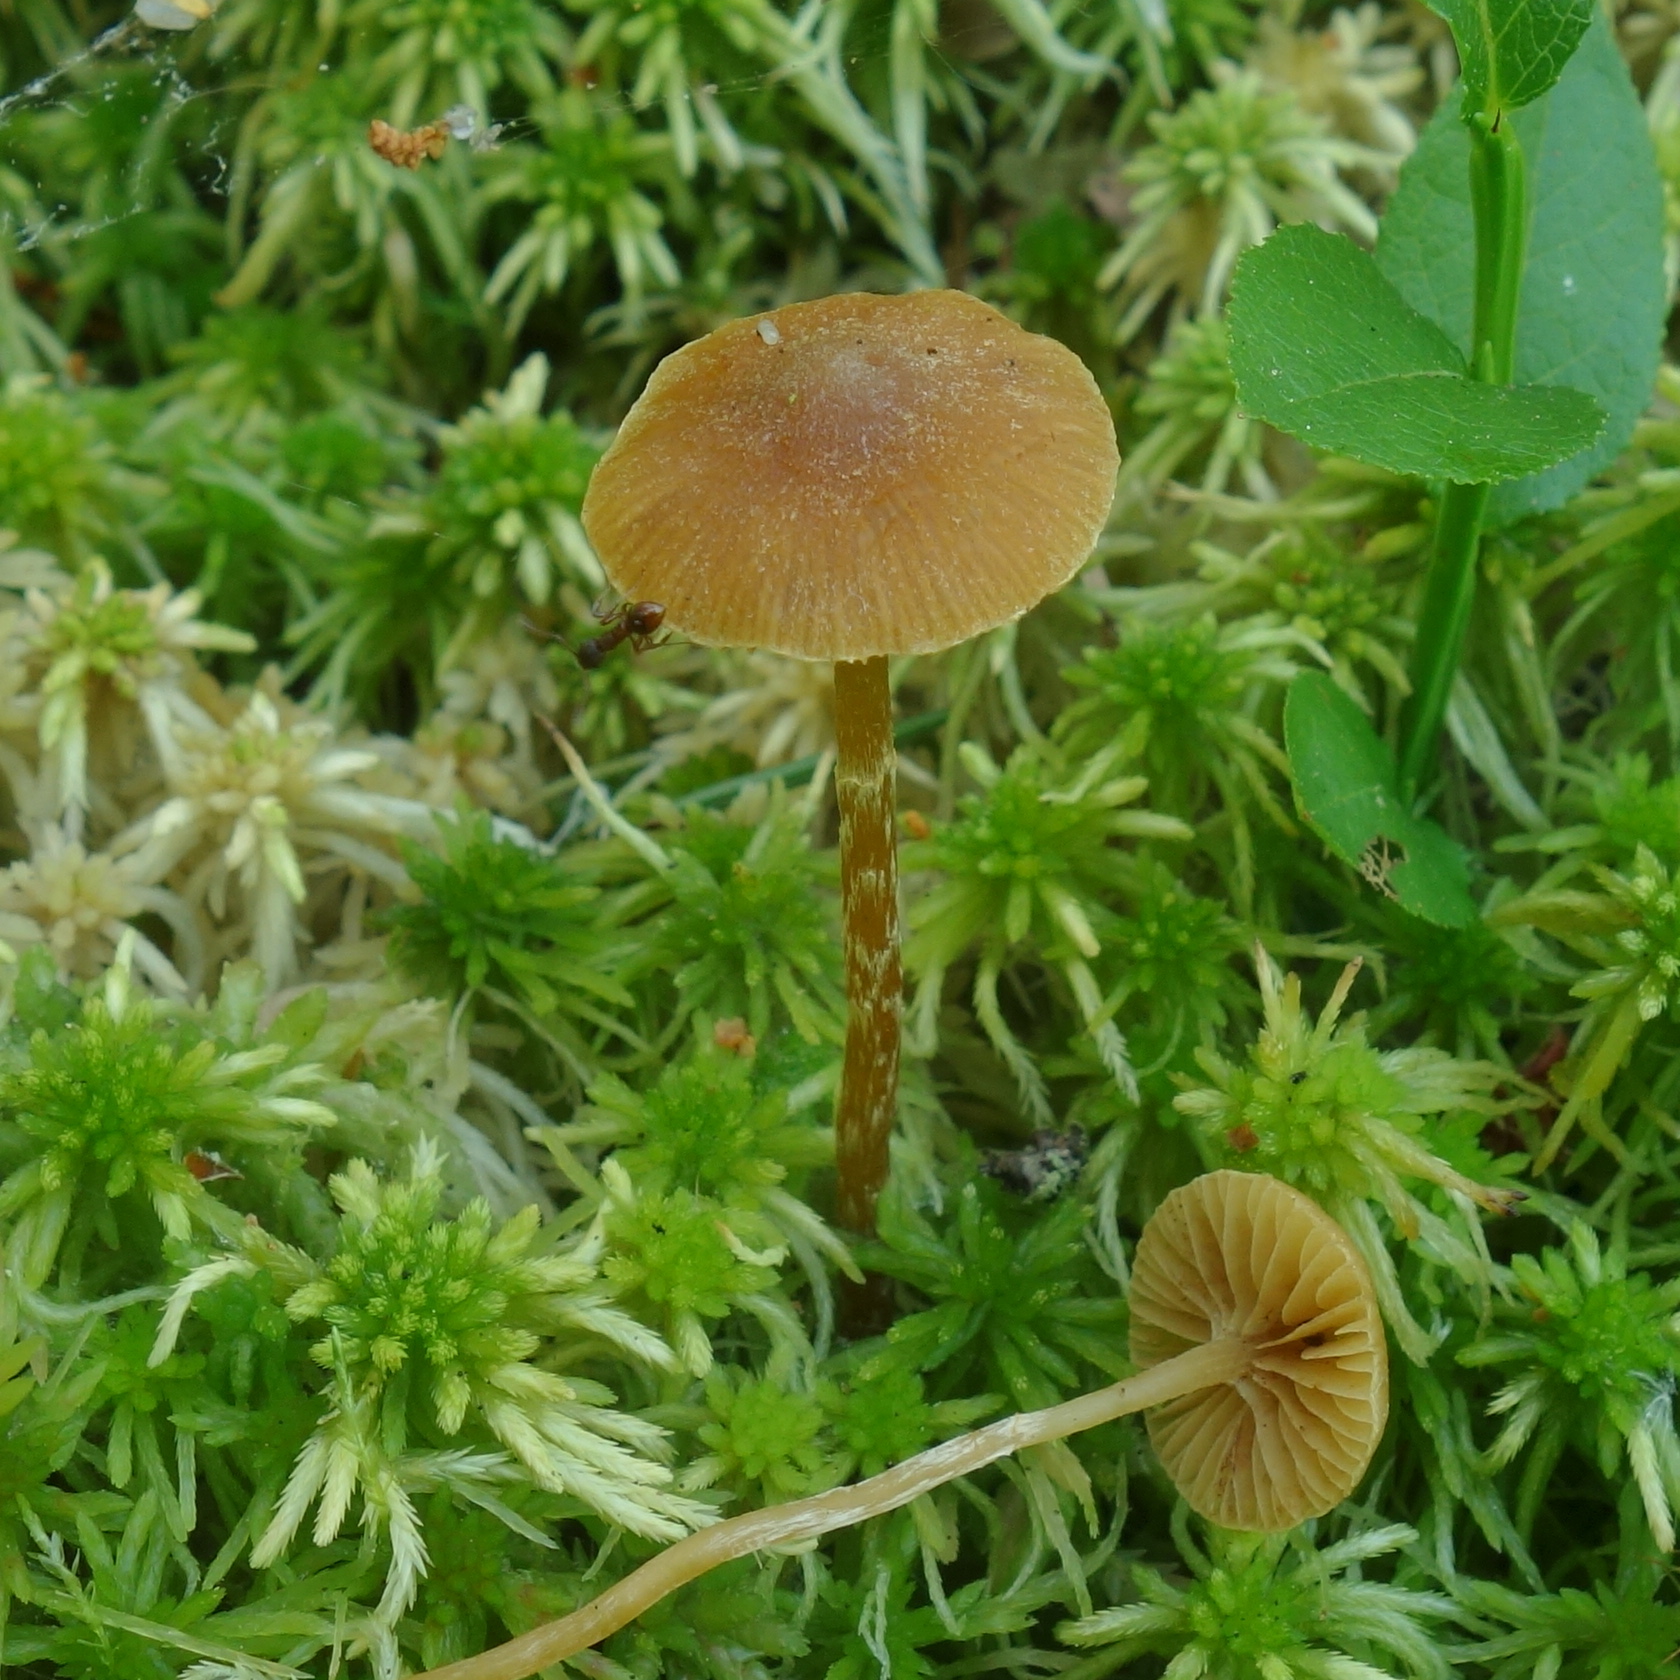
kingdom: Fungi
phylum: Basidiomycota
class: Agaricomycetes
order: Agaricales
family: Hymenogastraceae
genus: Galerina
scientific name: Galerina paludosa
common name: Bog bell
